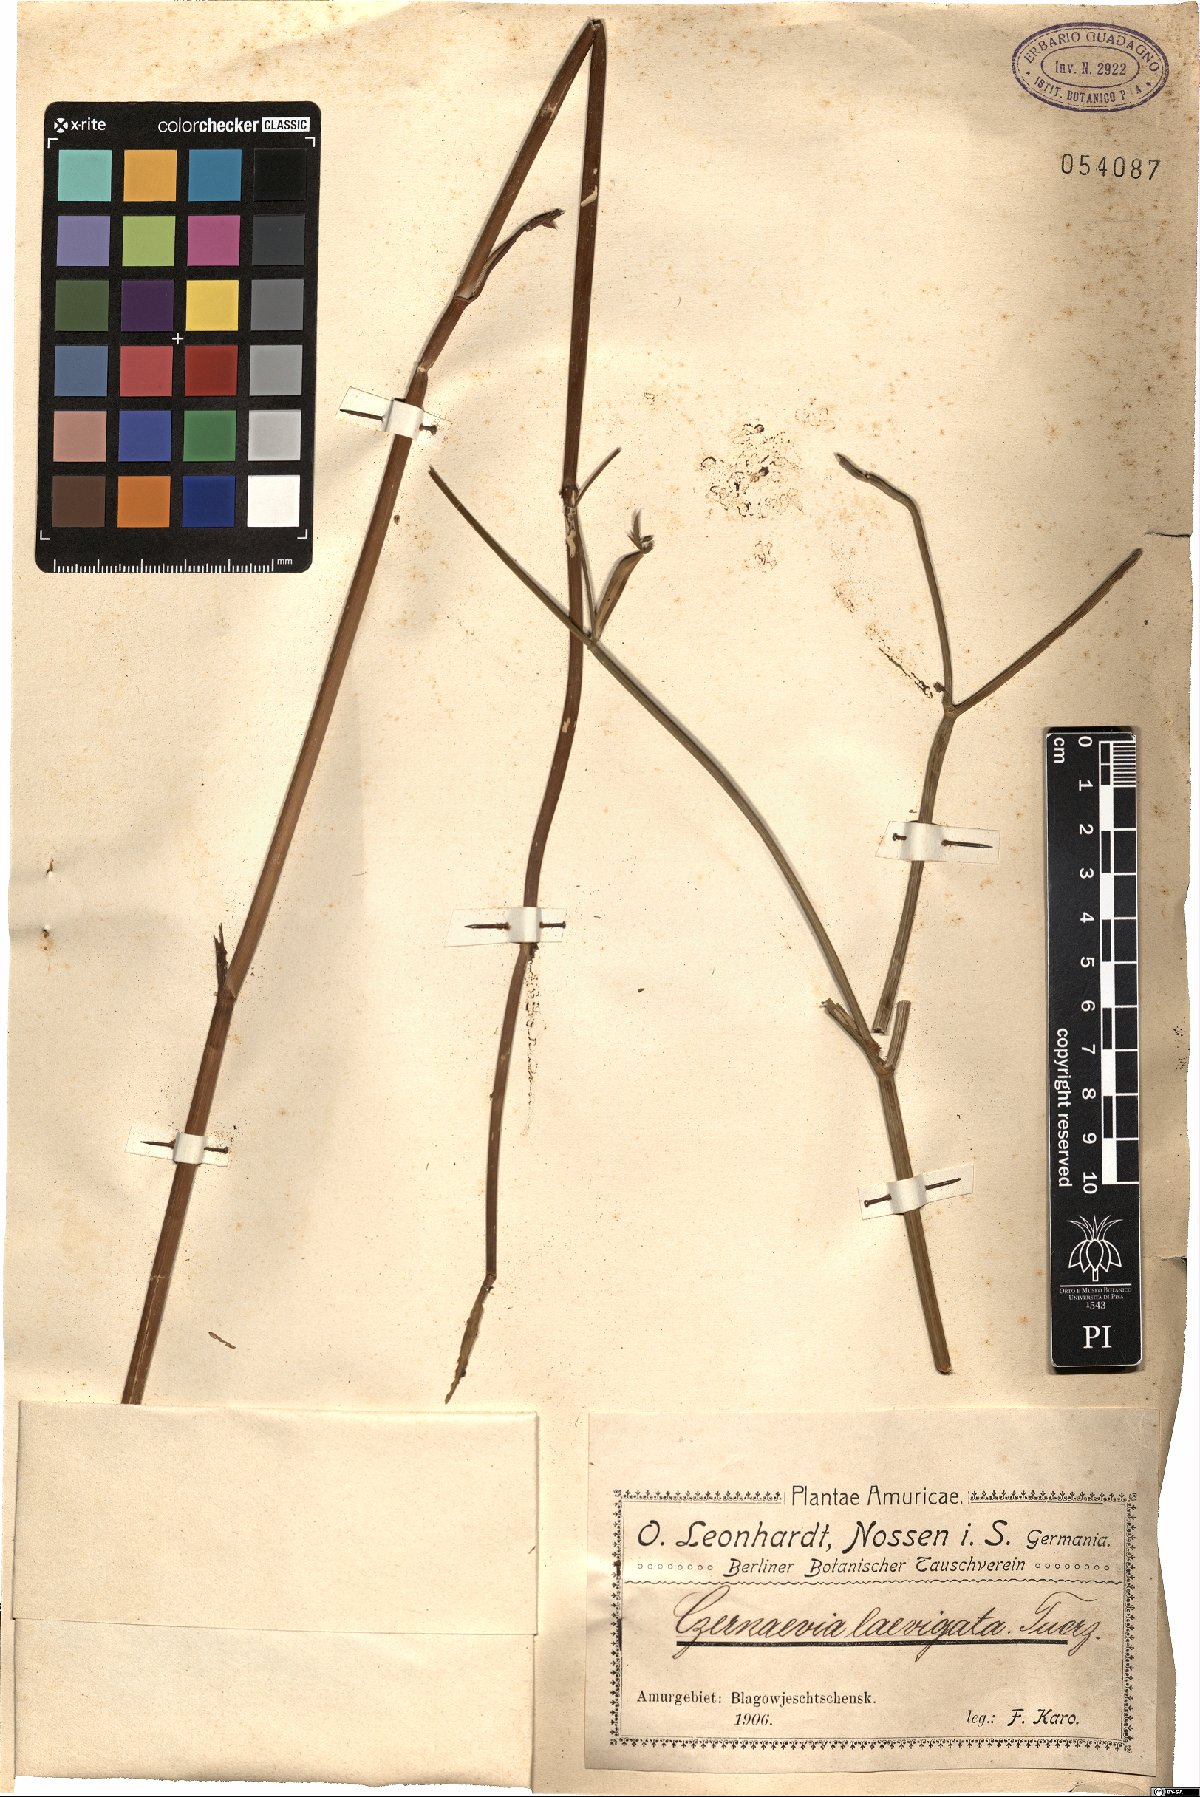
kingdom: Plantae
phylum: Tracheophyta
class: Magnoliopsida
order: Apiales
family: Apiaceae
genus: Angelica
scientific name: Angelica czernaevia
